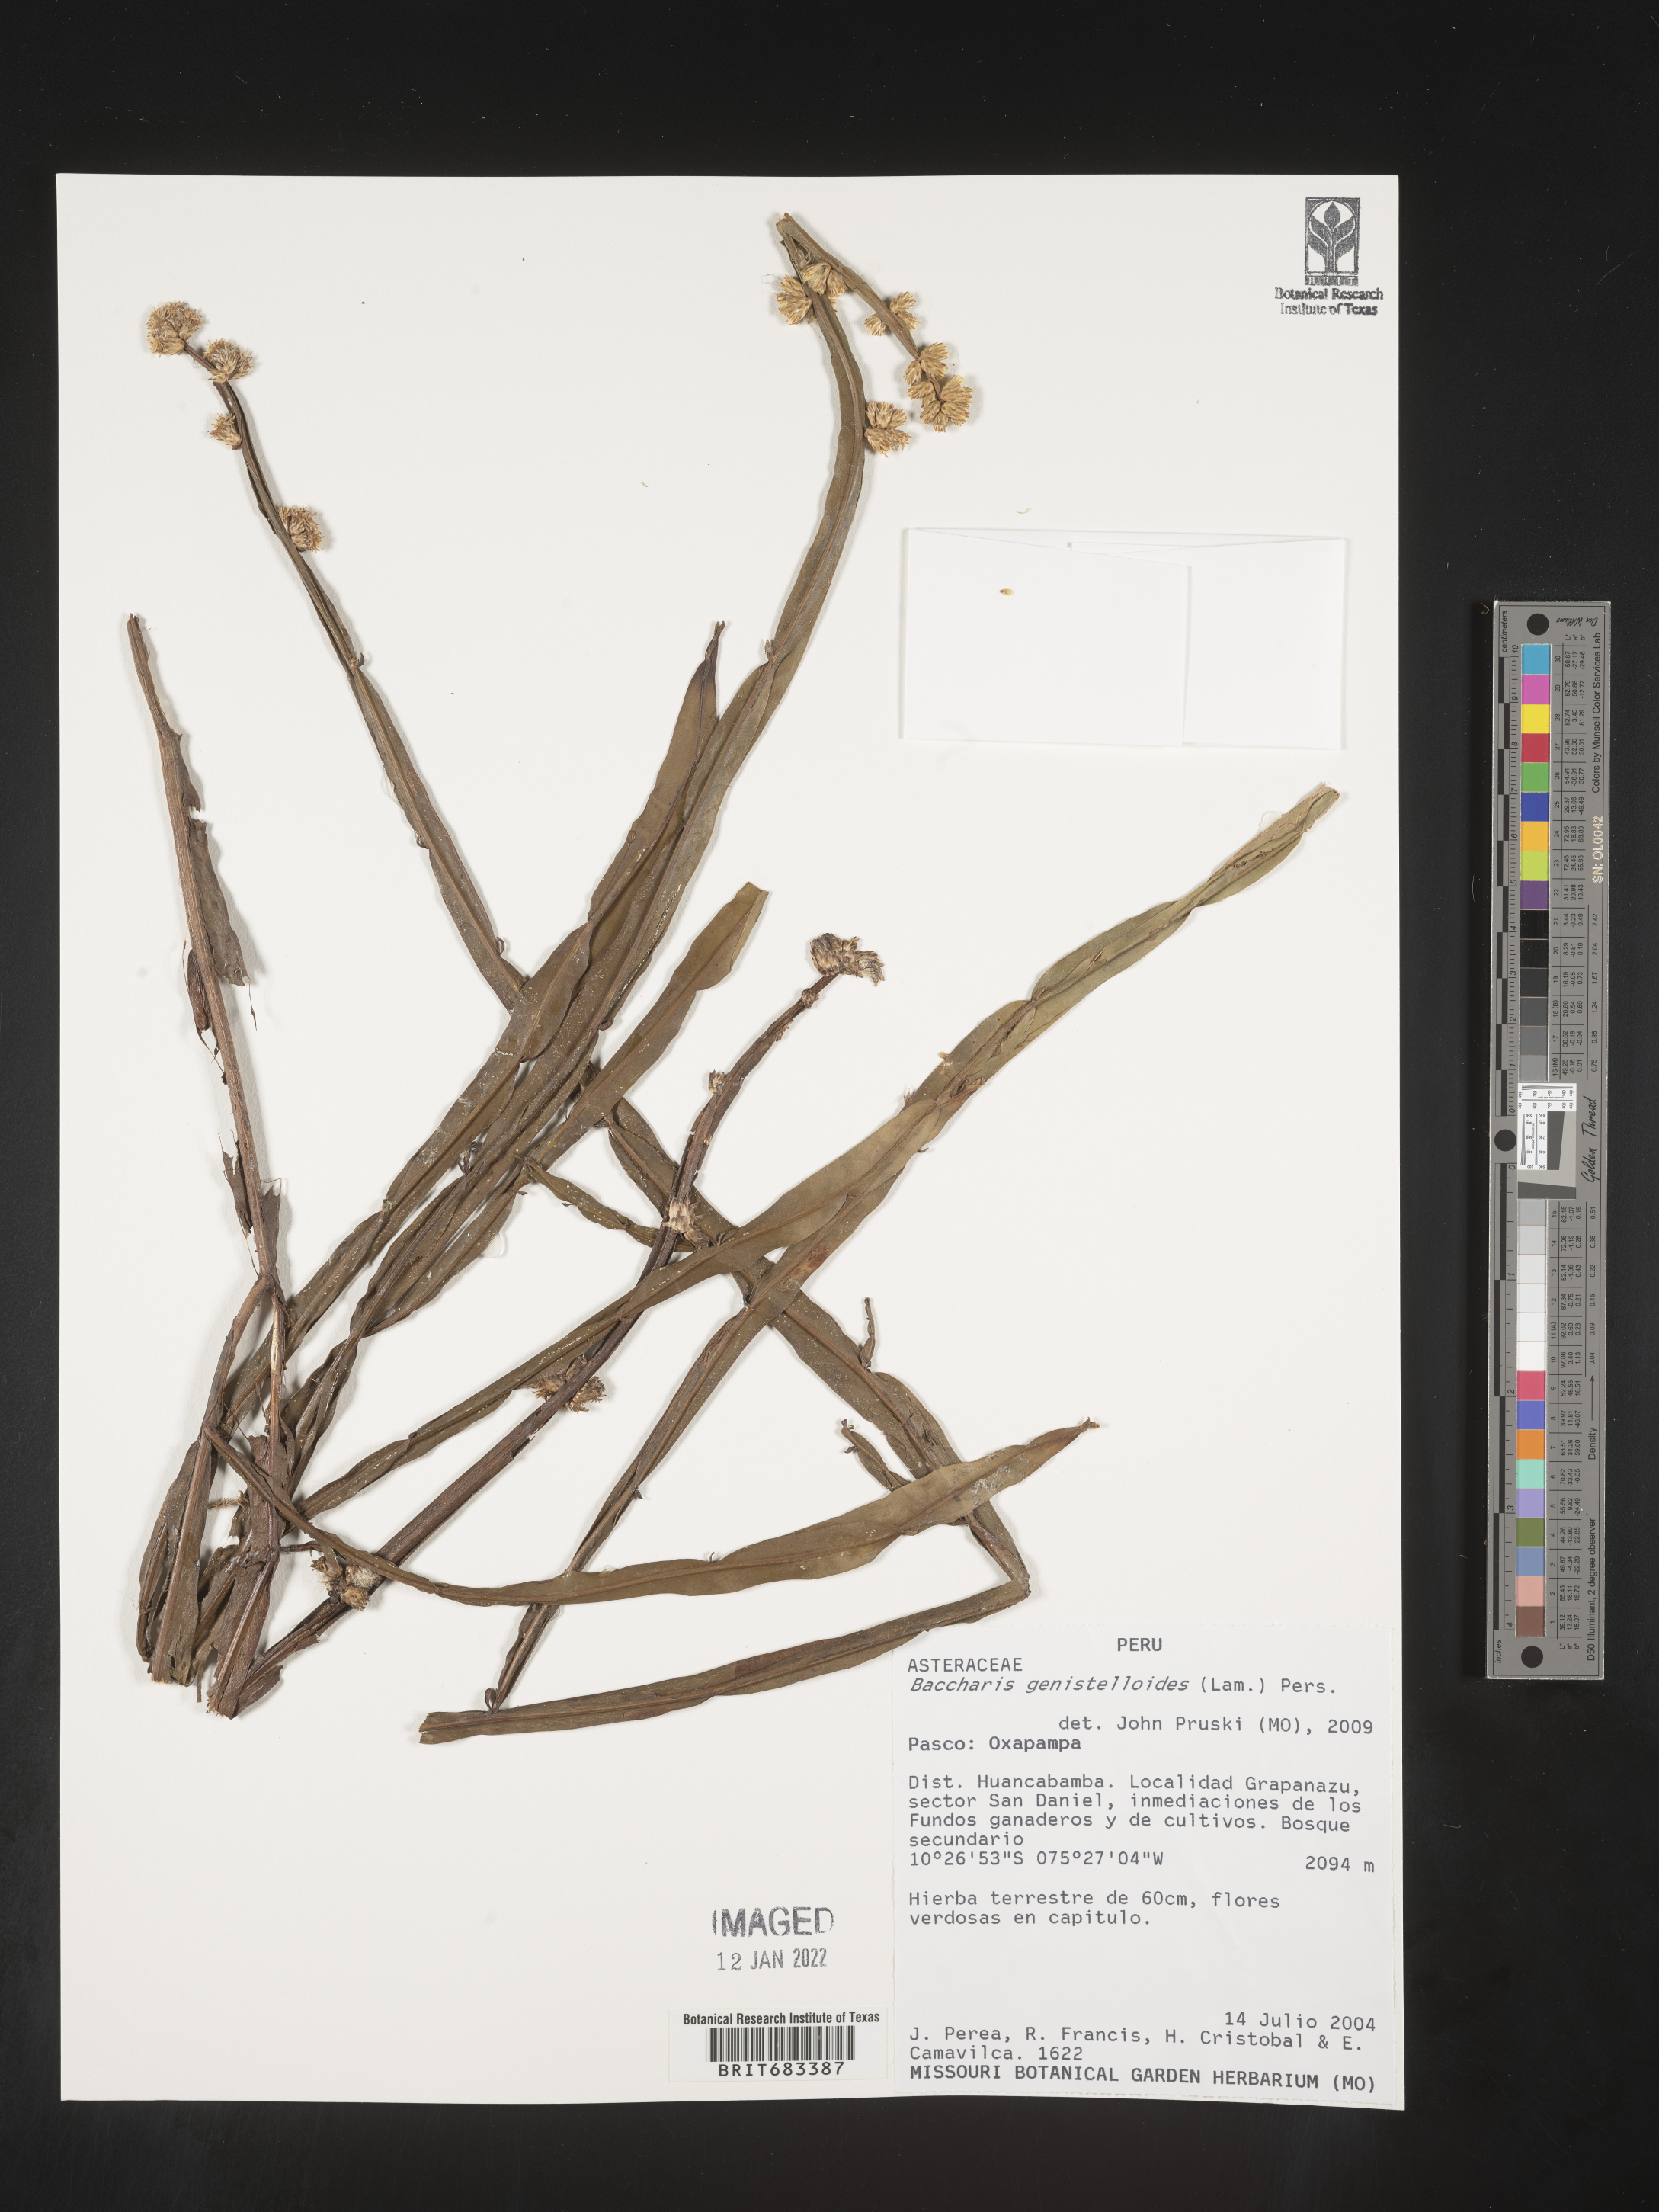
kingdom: Plantae
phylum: Tracheophyta
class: Magnoliopsida
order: Asterales
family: Asteraceae
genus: Baccharis
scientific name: Baccharis
